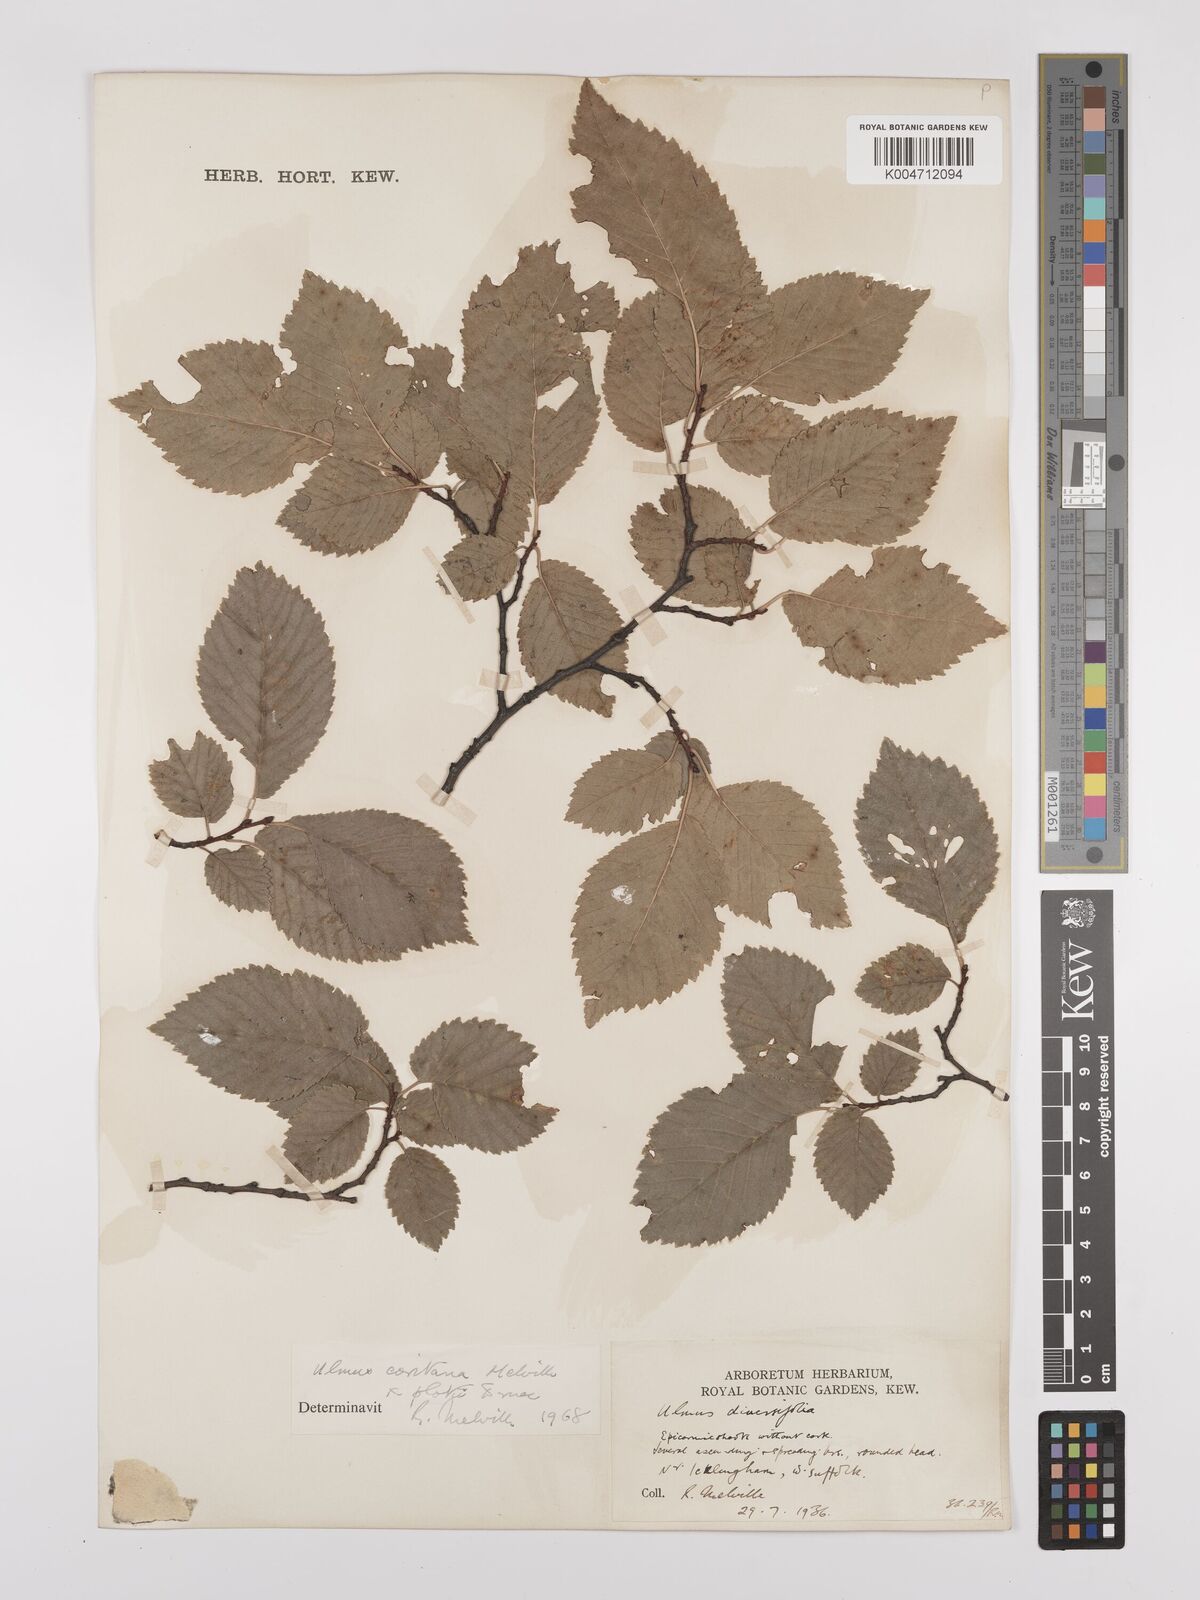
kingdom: Plantae
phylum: Tracheophyta
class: Magnoliopsida
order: Rosales
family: Ulmaceae
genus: Ulmus
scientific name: Ulmus minor
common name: Small-leaved elm
